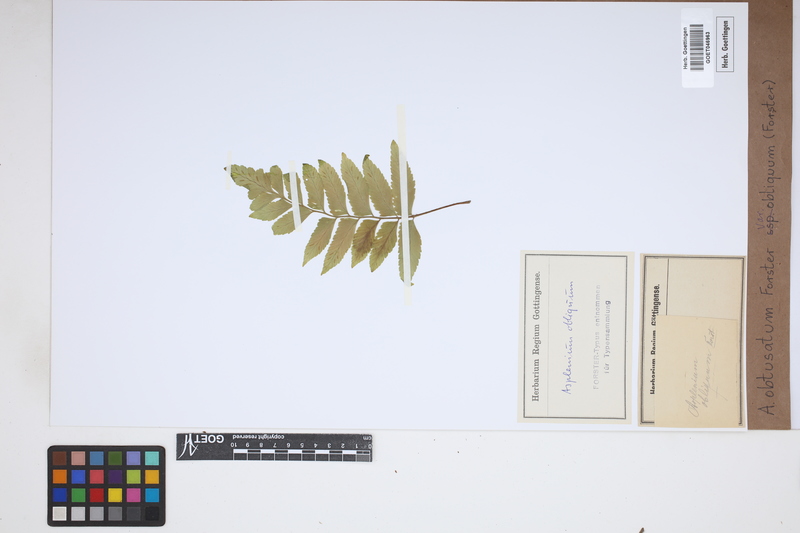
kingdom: Plantae
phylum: Tracheophyta
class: Polypodiopsida
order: Polypodiales
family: Aspleniaceae
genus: Asplenium
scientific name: Asplenium obtusatum
